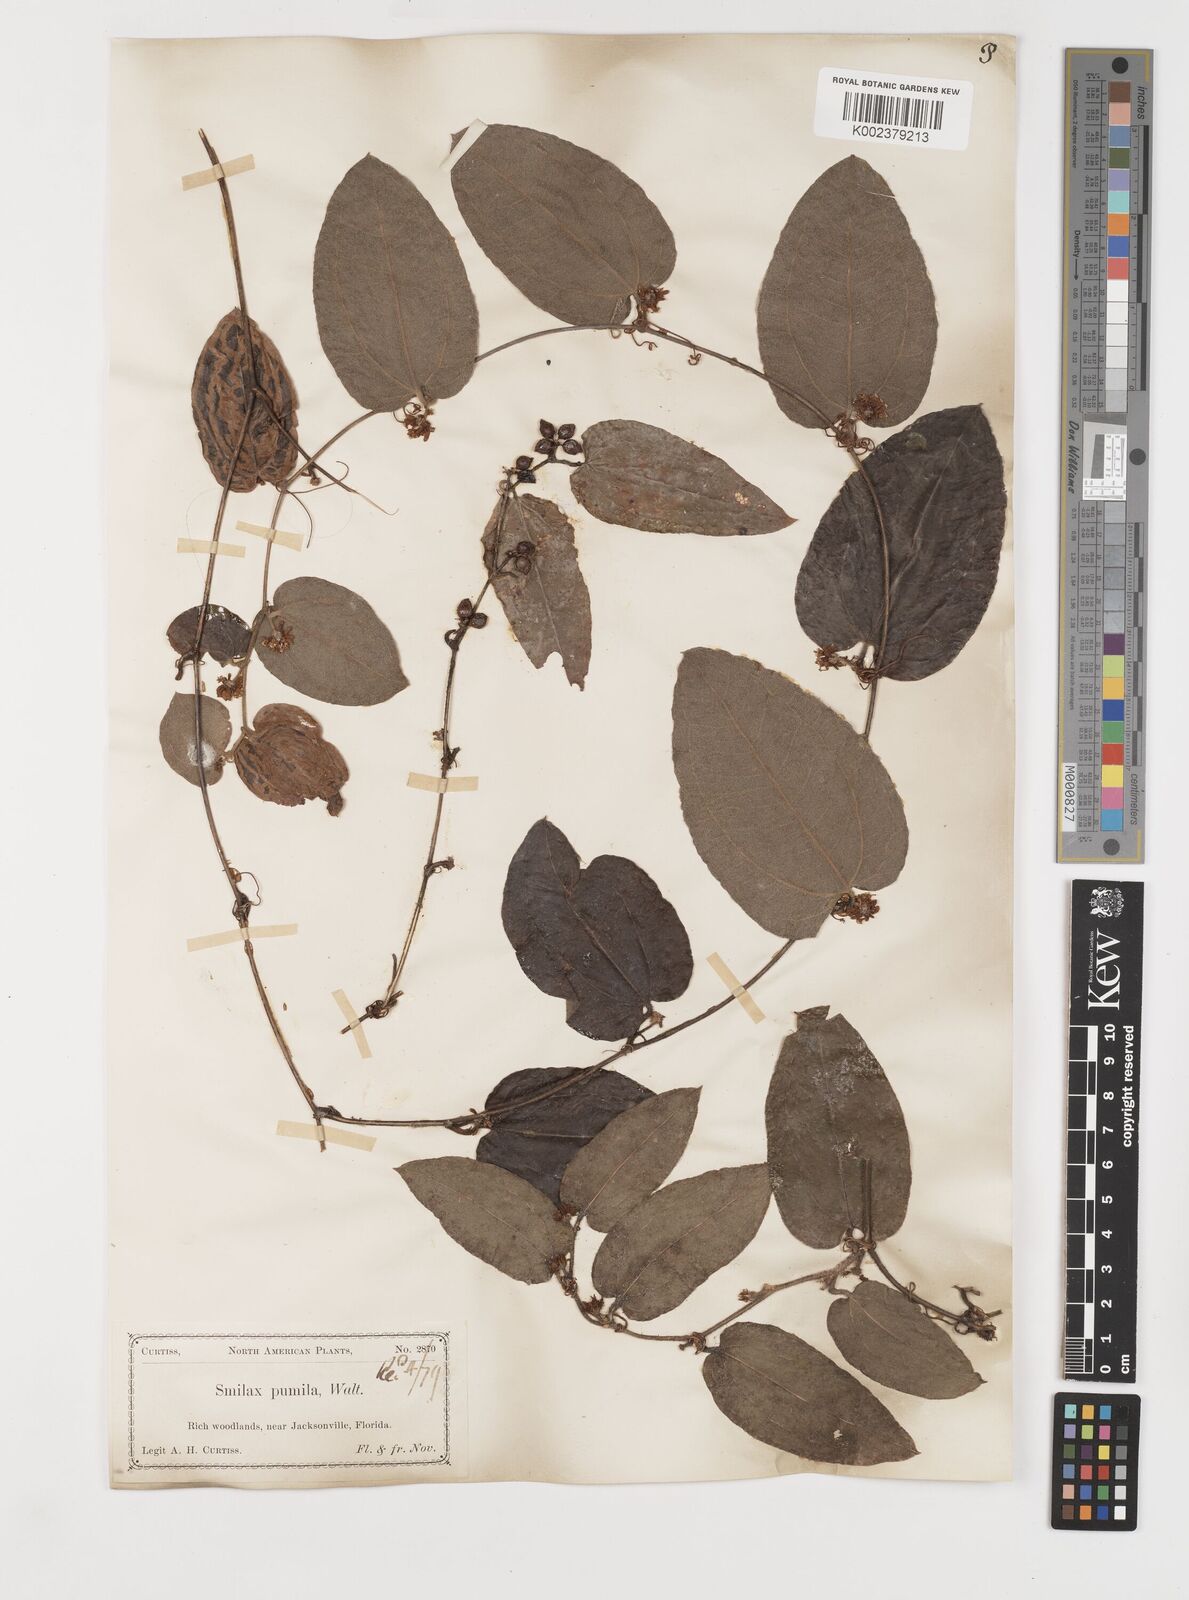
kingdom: Plantae
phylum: Tracheophyta
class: Liliopsida
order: Liliales
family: Smilacaceae
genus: Smilax
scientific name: Smilax pumila
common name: Sarsaparilla-vine
